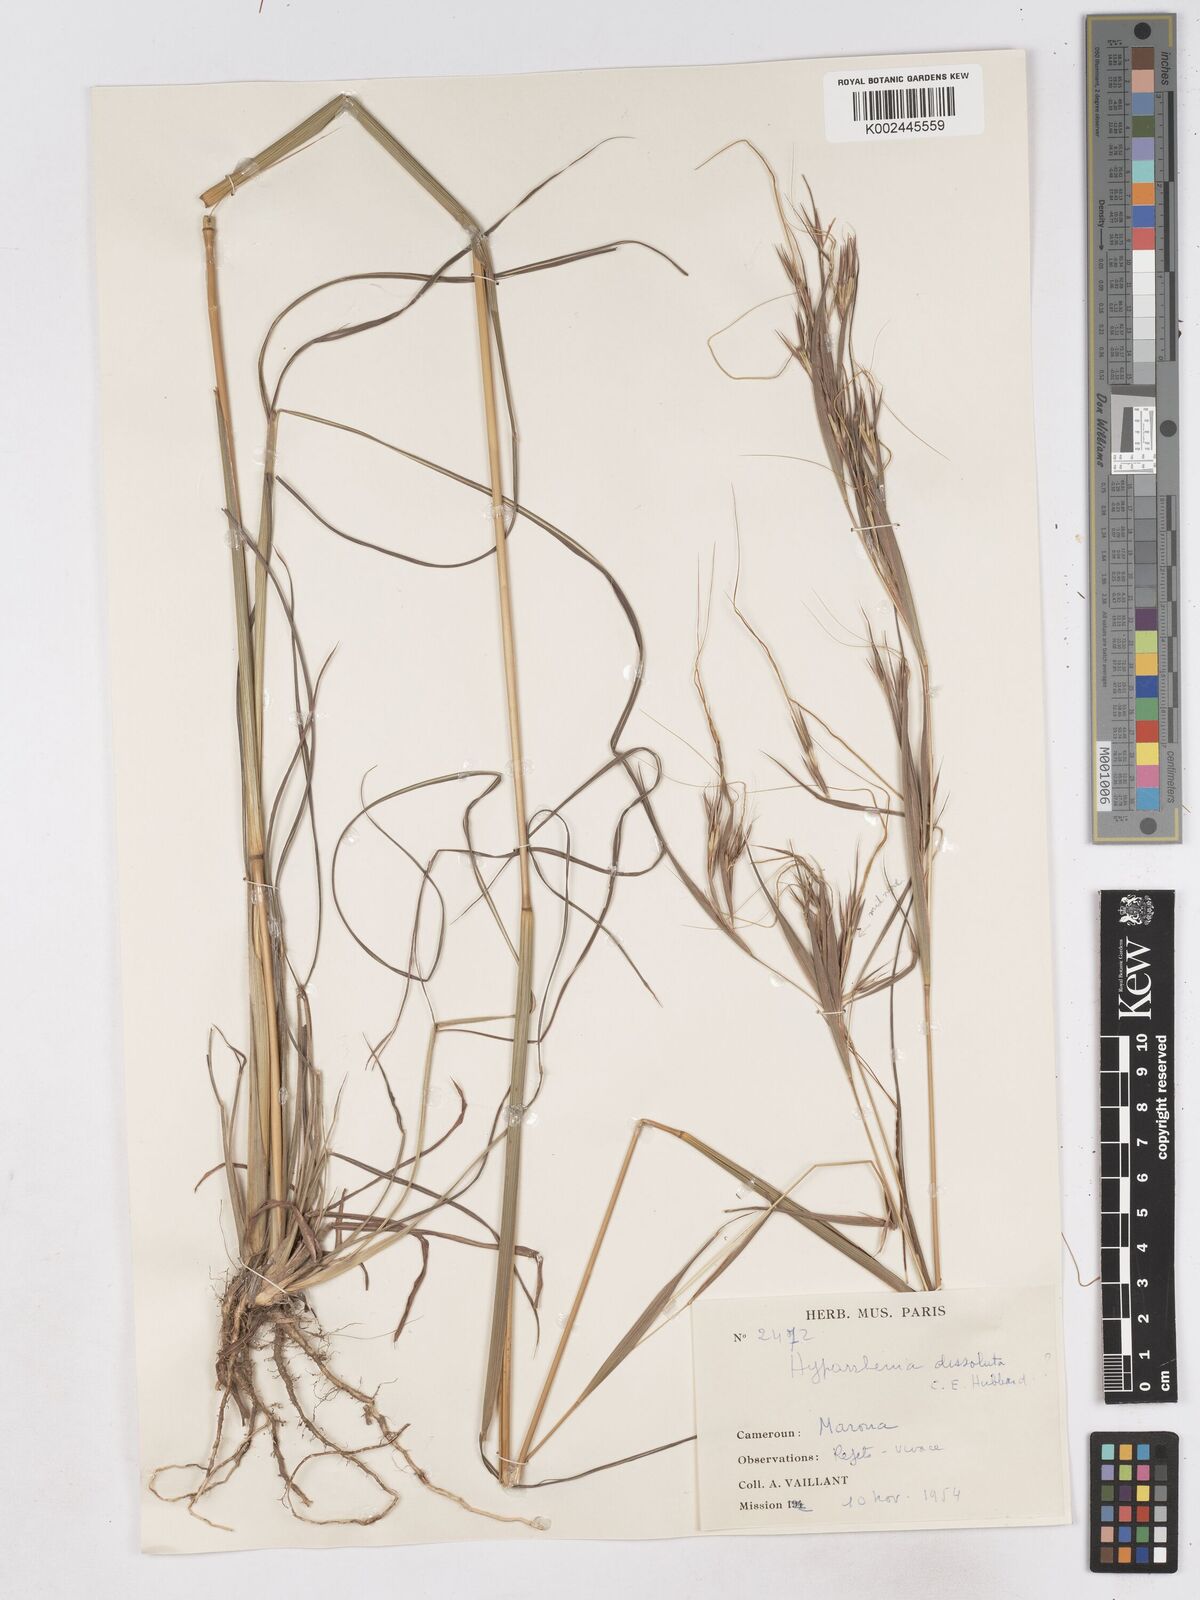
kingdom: Plantae
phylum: Tracheophyta
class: Liliopsida
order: Poales
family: Poaceae
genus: Hyperthelia
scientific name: Hyperthelia dissoluta
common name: Yellow thatching grass
